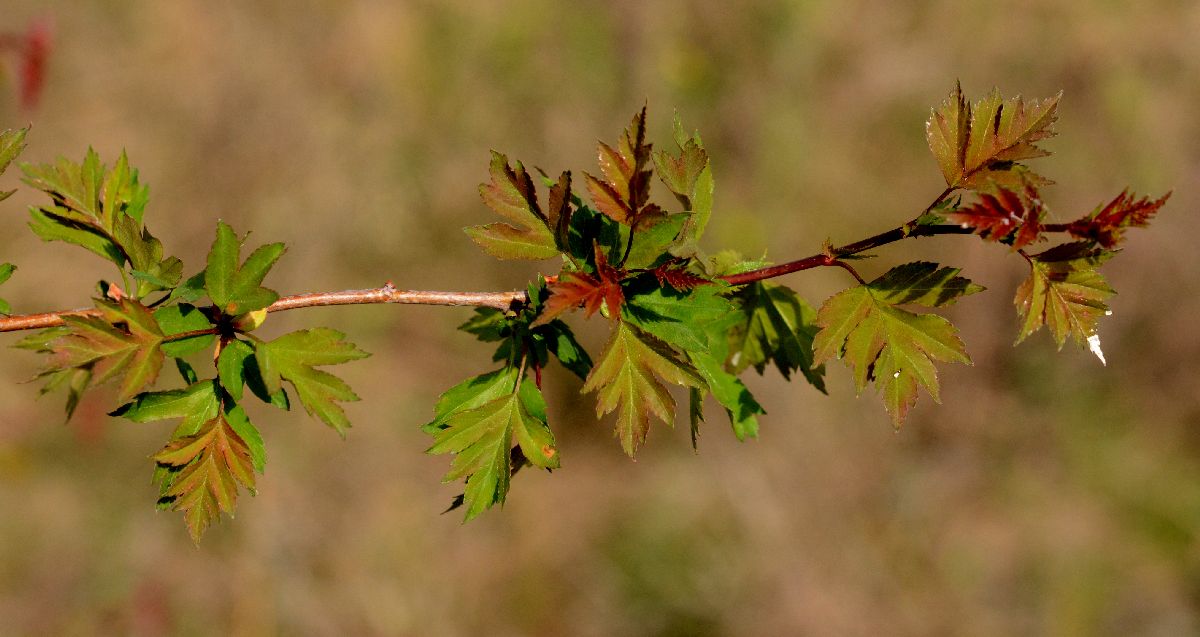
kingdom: Plantae
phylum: Tracheophyta
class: Magnoliopsida
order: Rosales
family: Rosaceae
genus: Crataegus
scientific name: Crataegus
